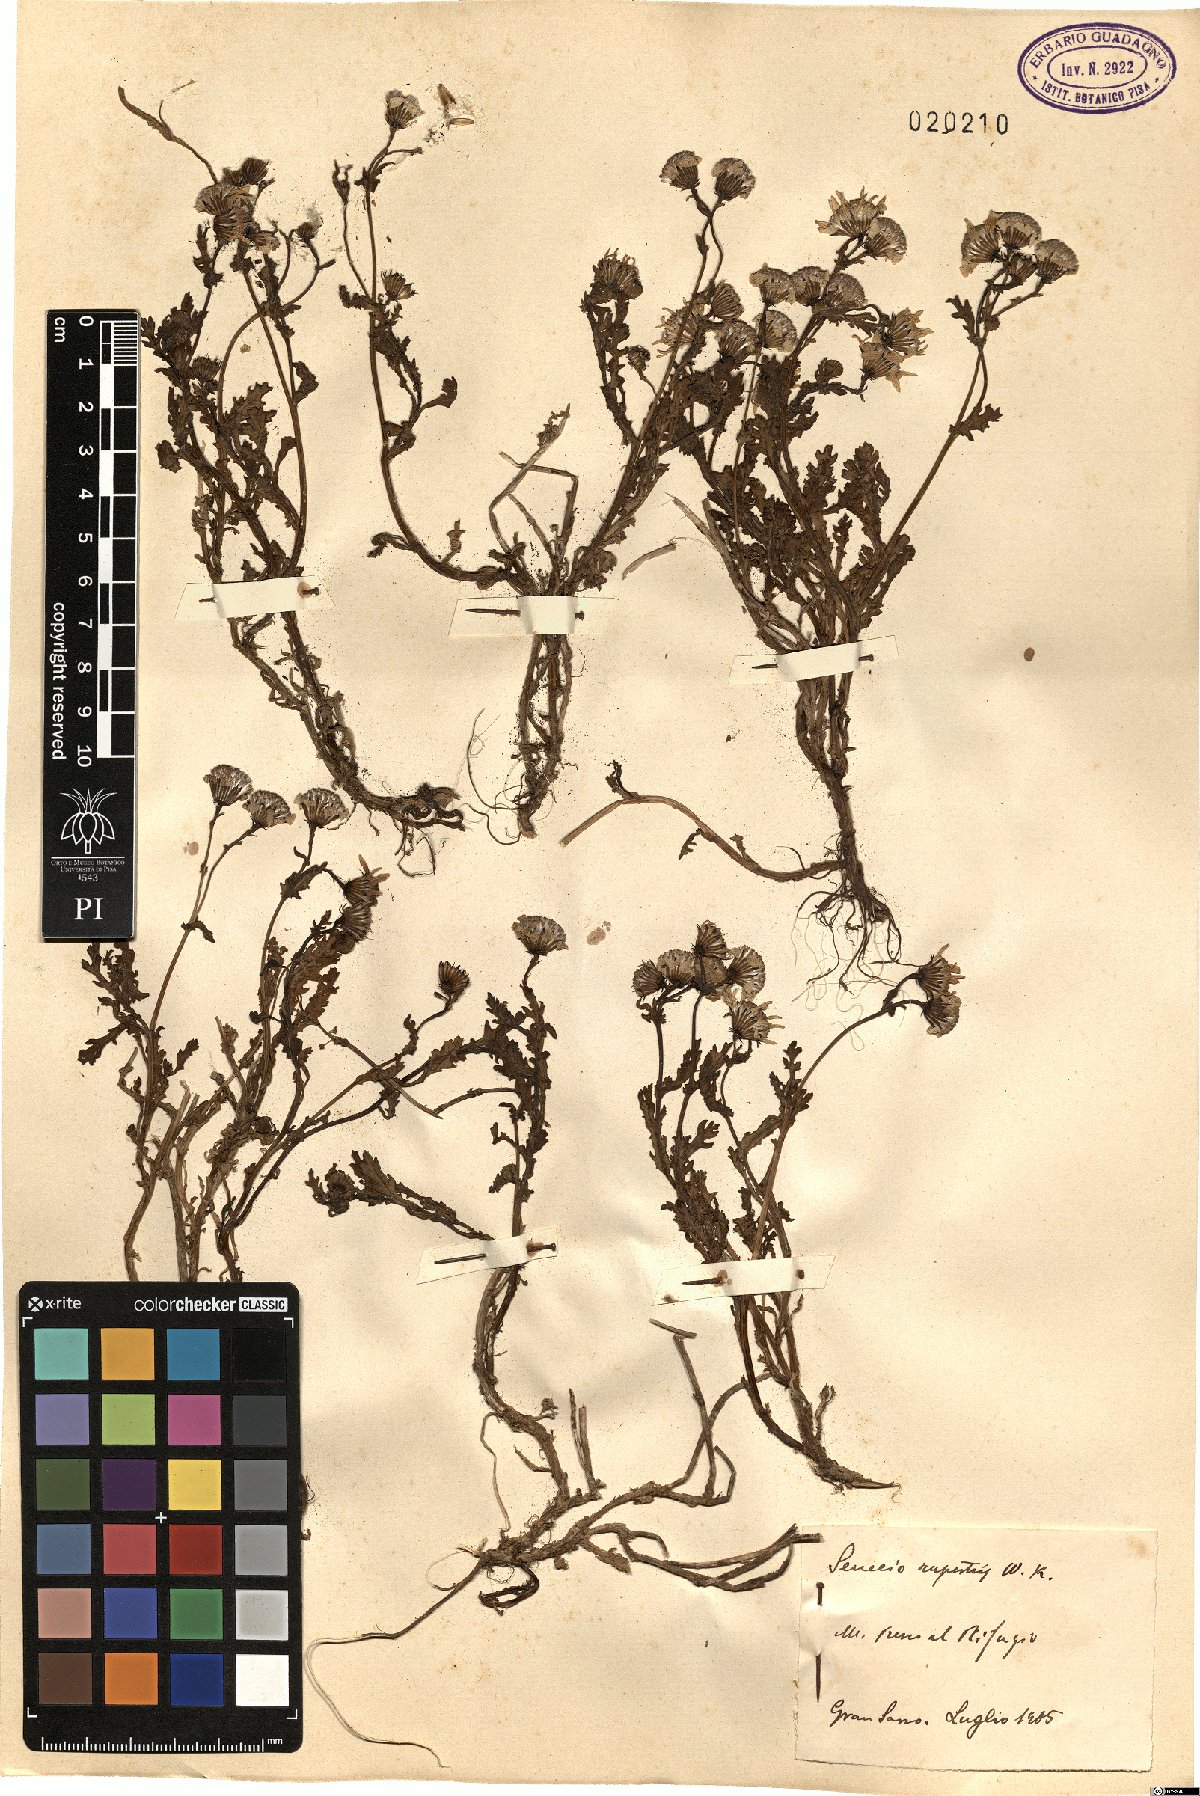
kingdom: Plantae
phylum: Tracheophyta
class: Magnoliopsida
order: Asterales
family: Asteraceae
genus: Senecio
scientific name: Senecio rupestris
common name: Rock ragwort
